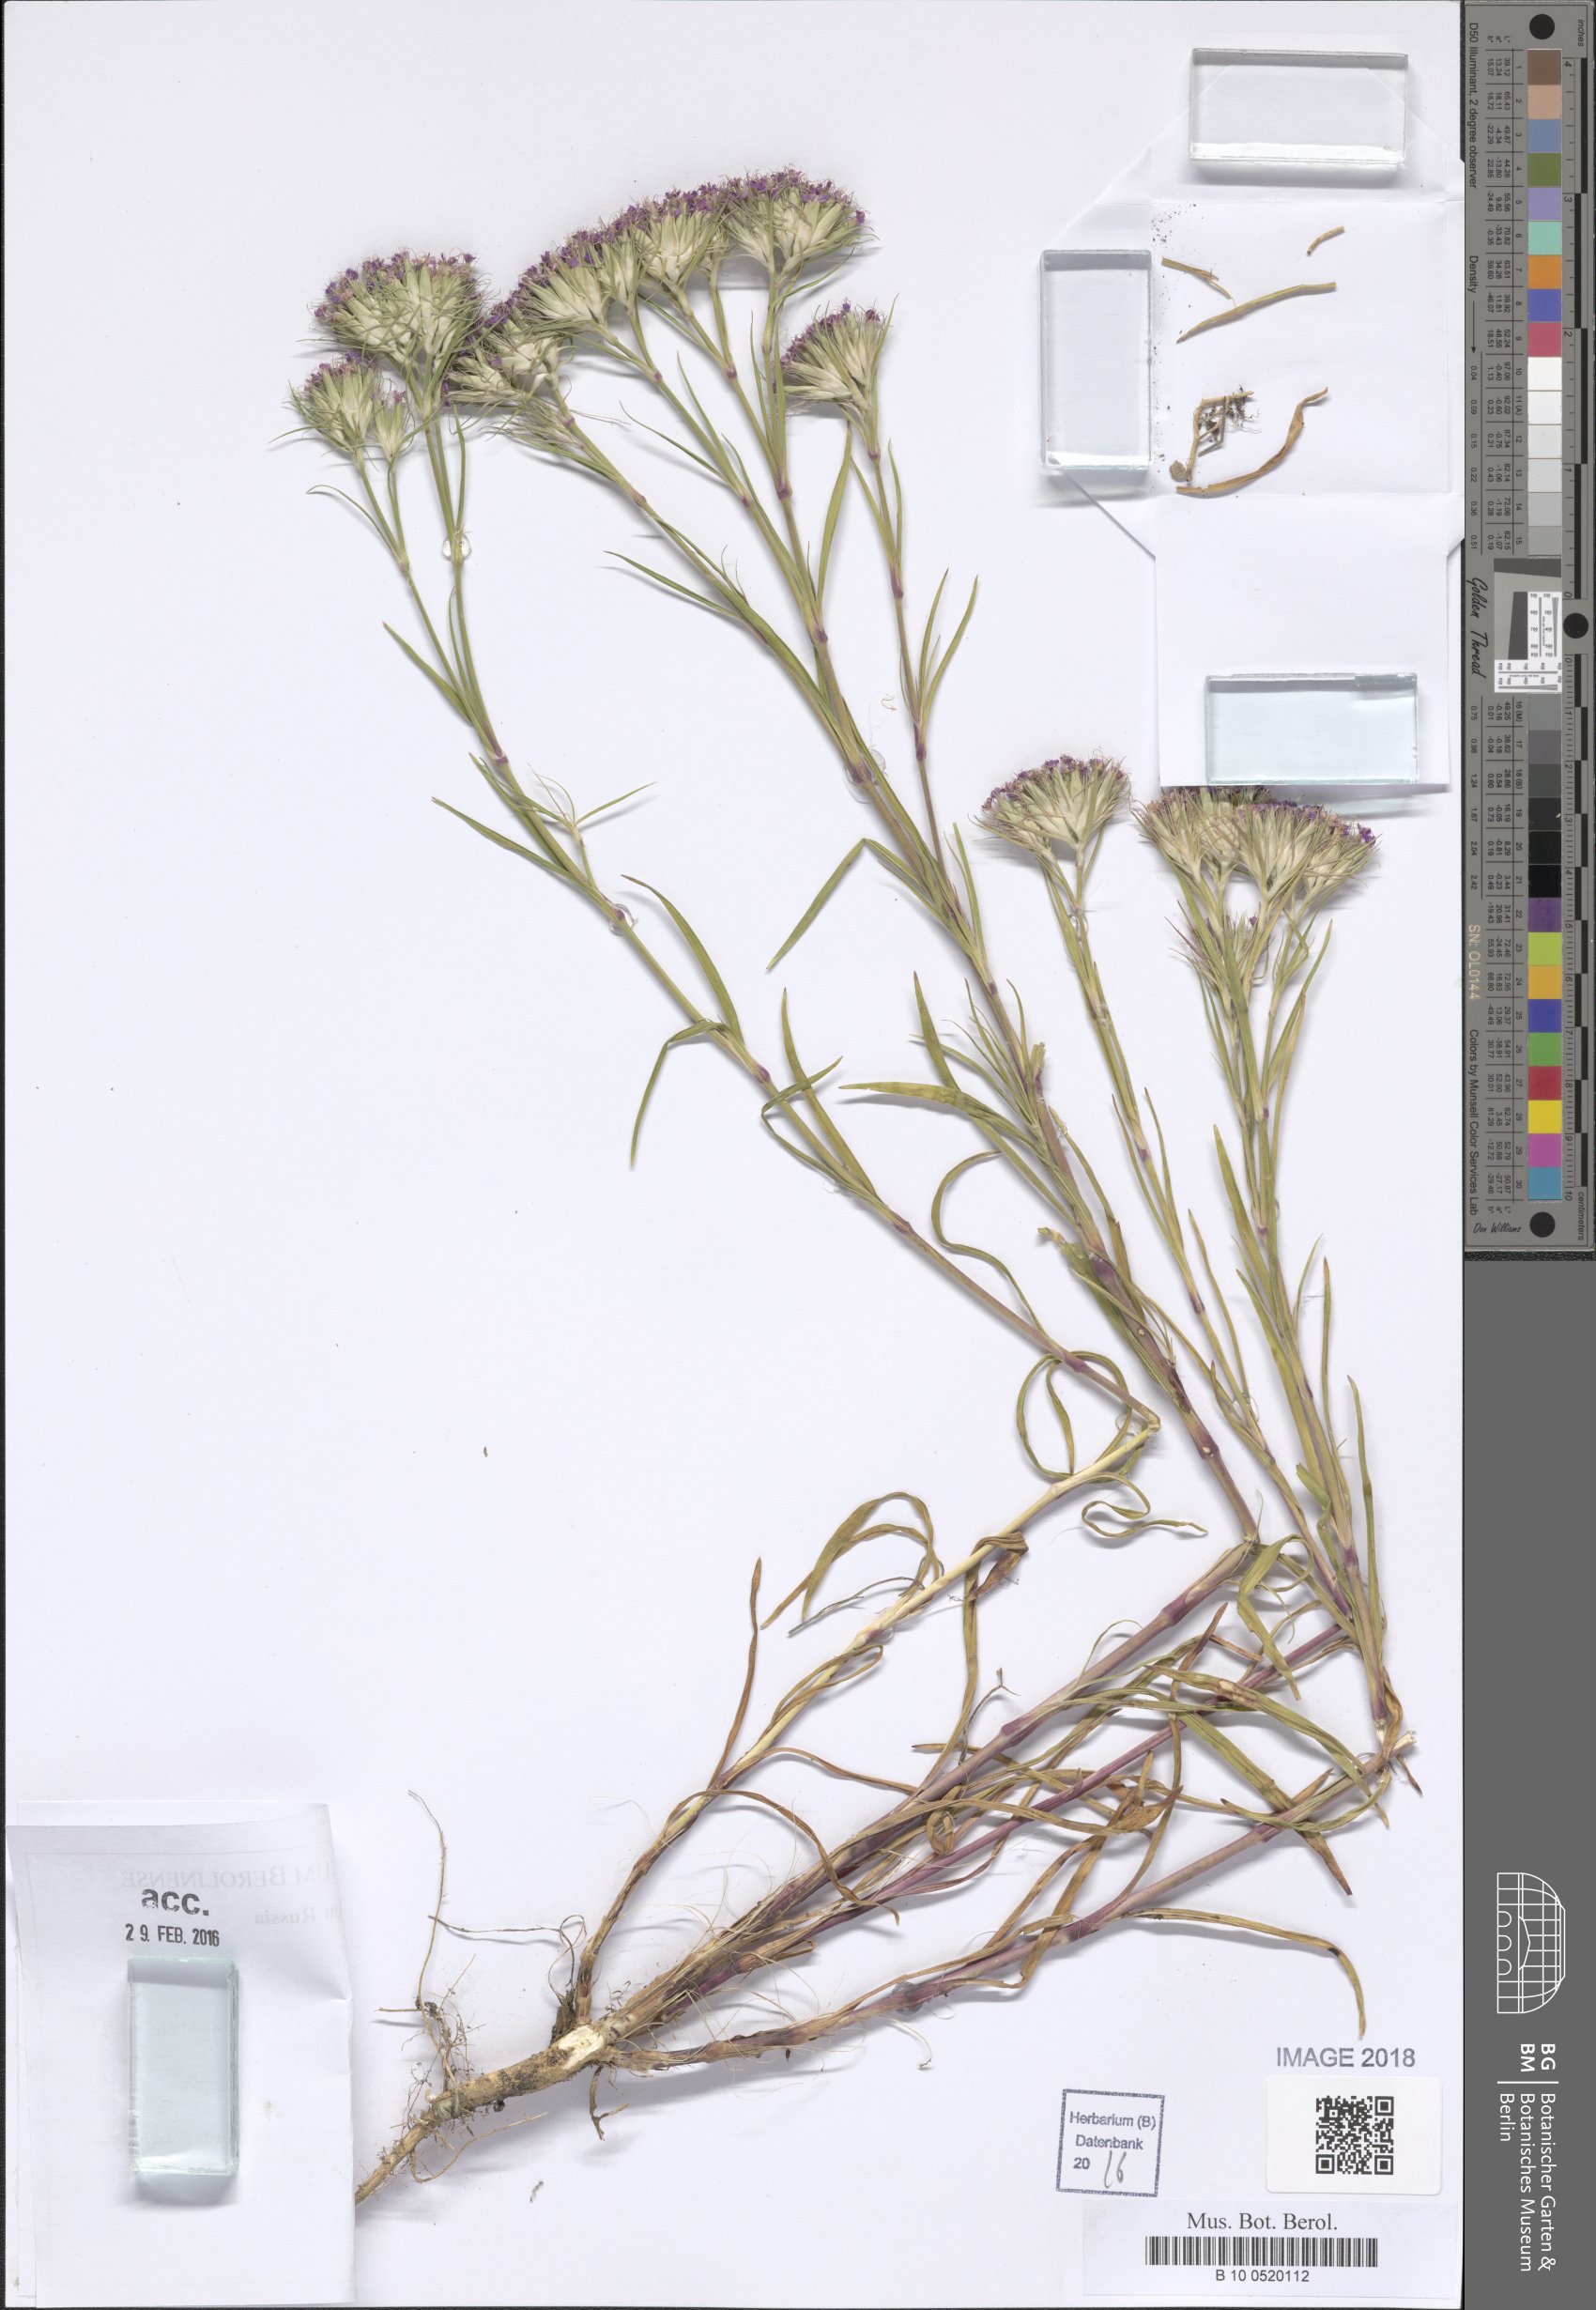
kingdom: Plantae
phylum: Tracheophyta
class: Magnoliopsida
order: Caryophyllales
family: Caryophyllaceae
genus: Dianthus
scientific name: Dianthus pseudarmeria
